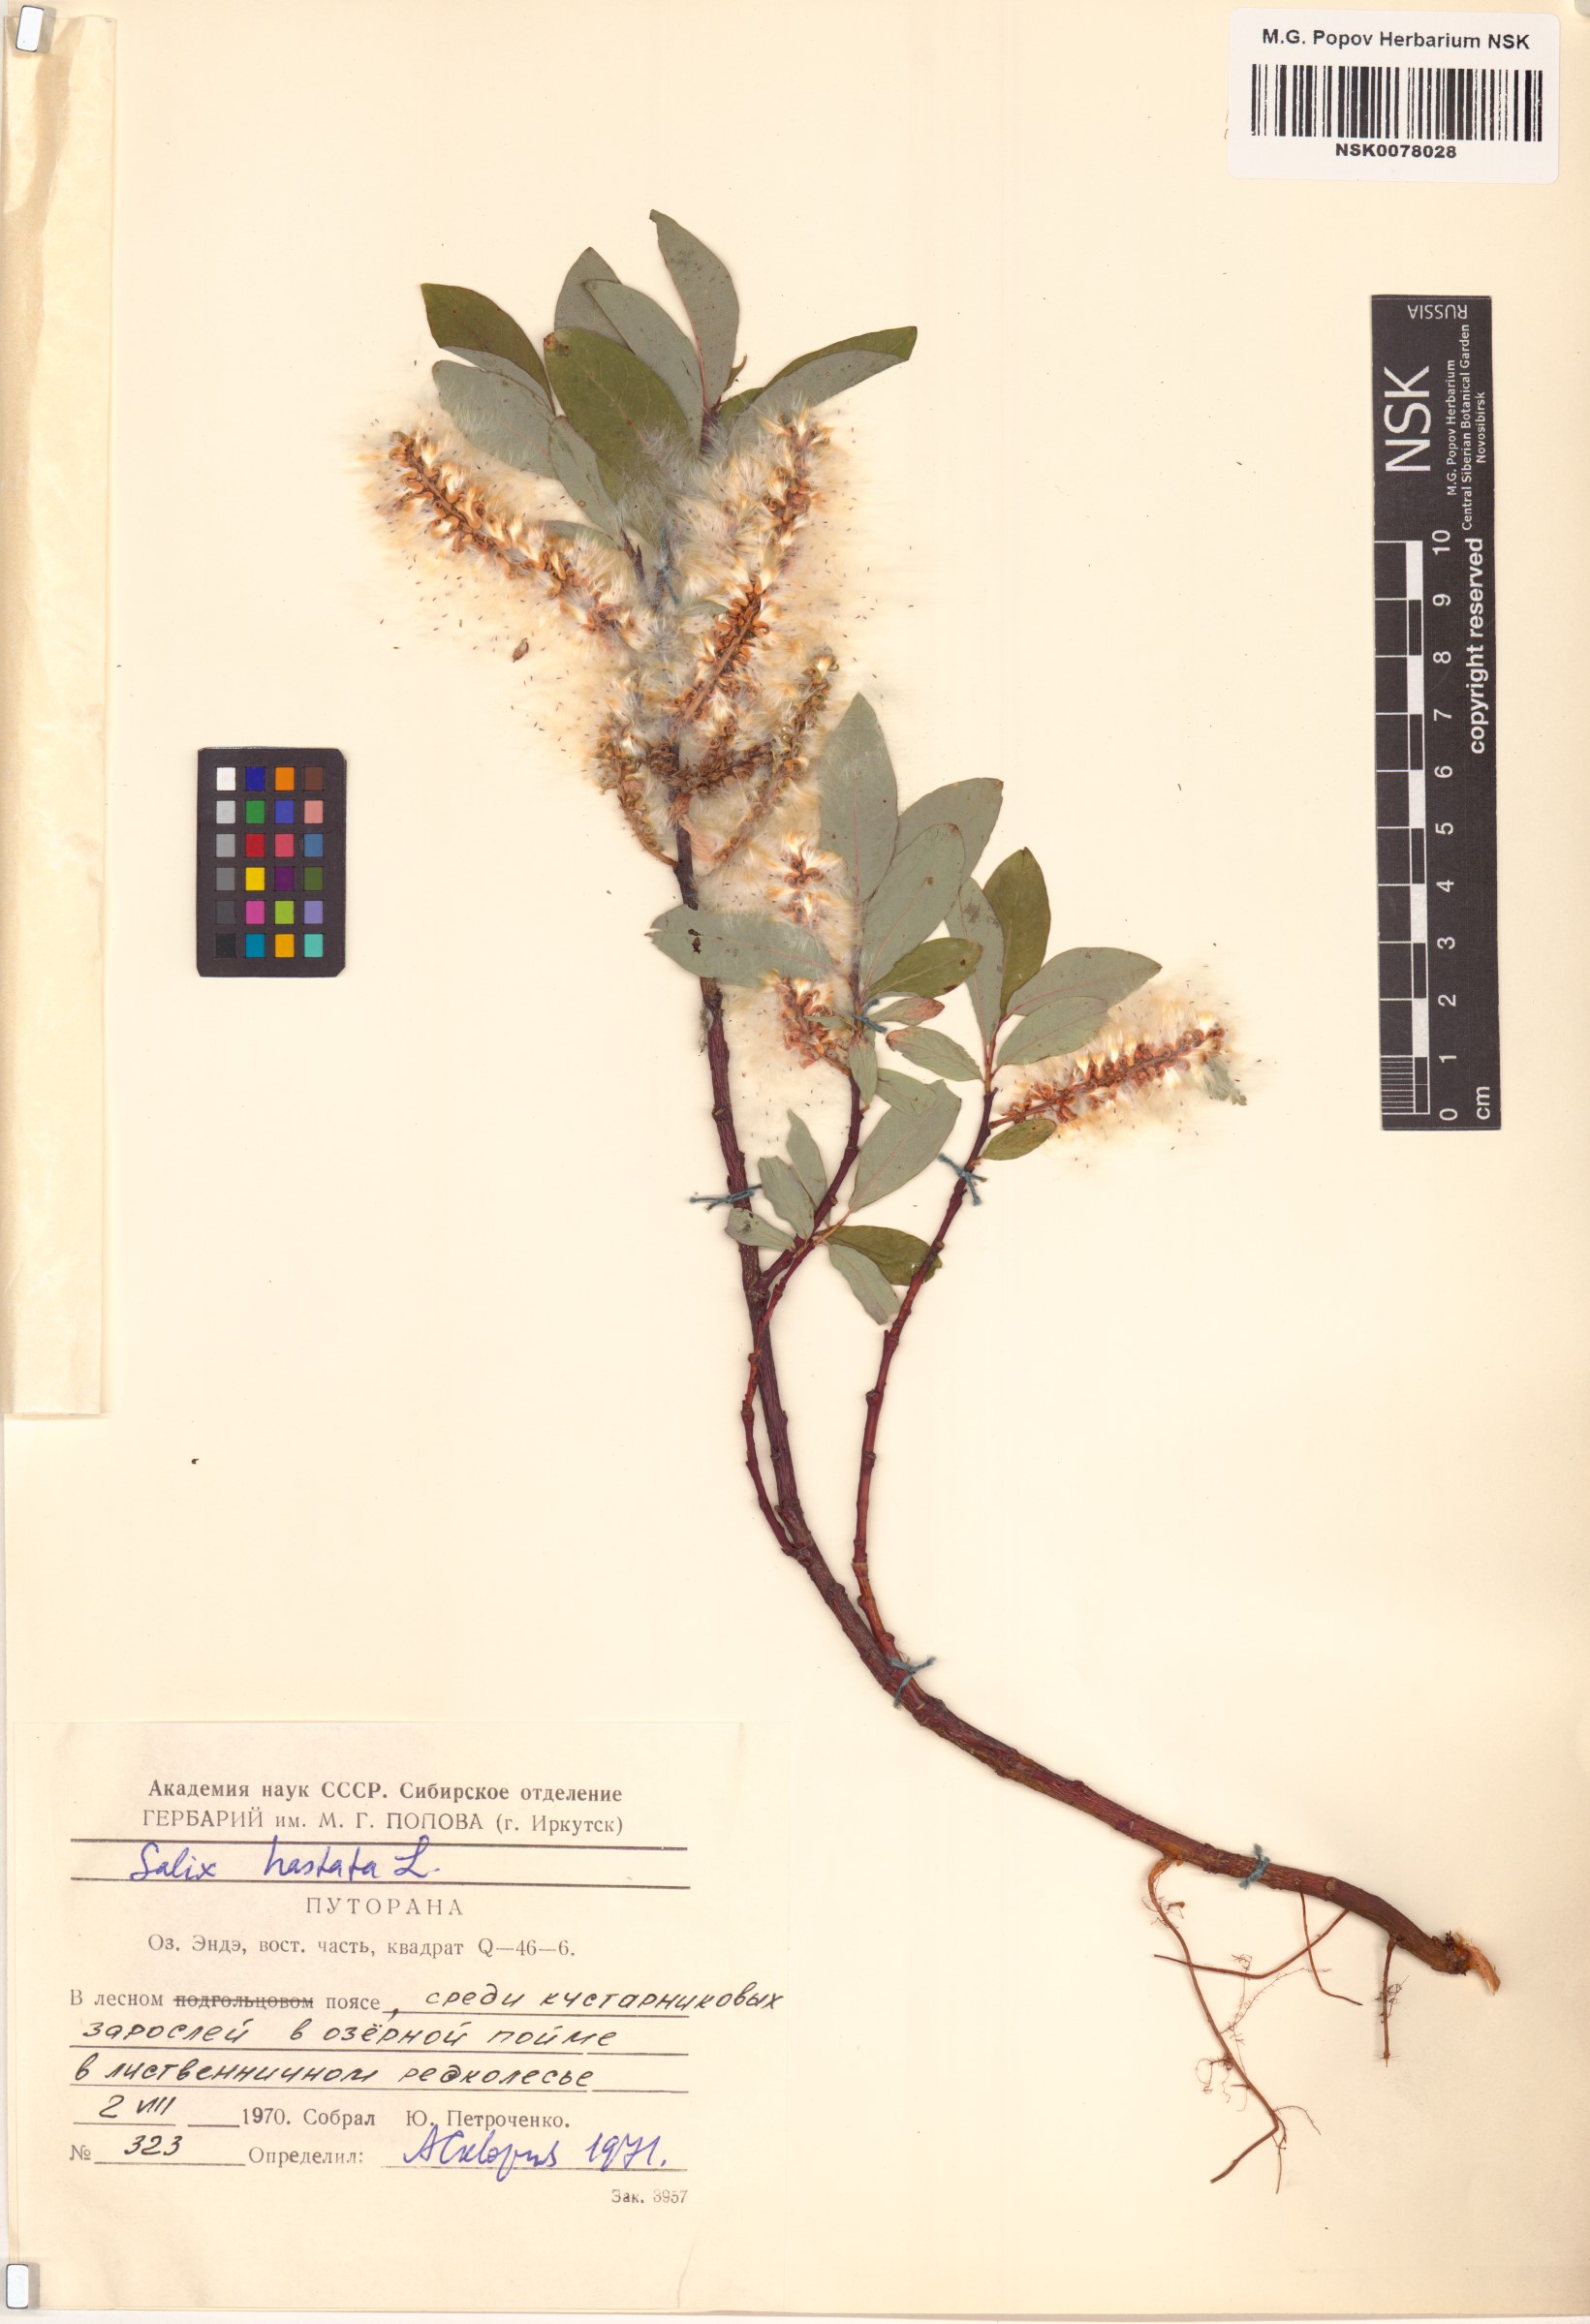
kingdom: Plantae
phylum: Tracheophyta
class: Magnoliopsida
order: Malpighiales
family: Salicaceae
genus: Salix
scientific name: Salix hastata
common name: Halberd willow
